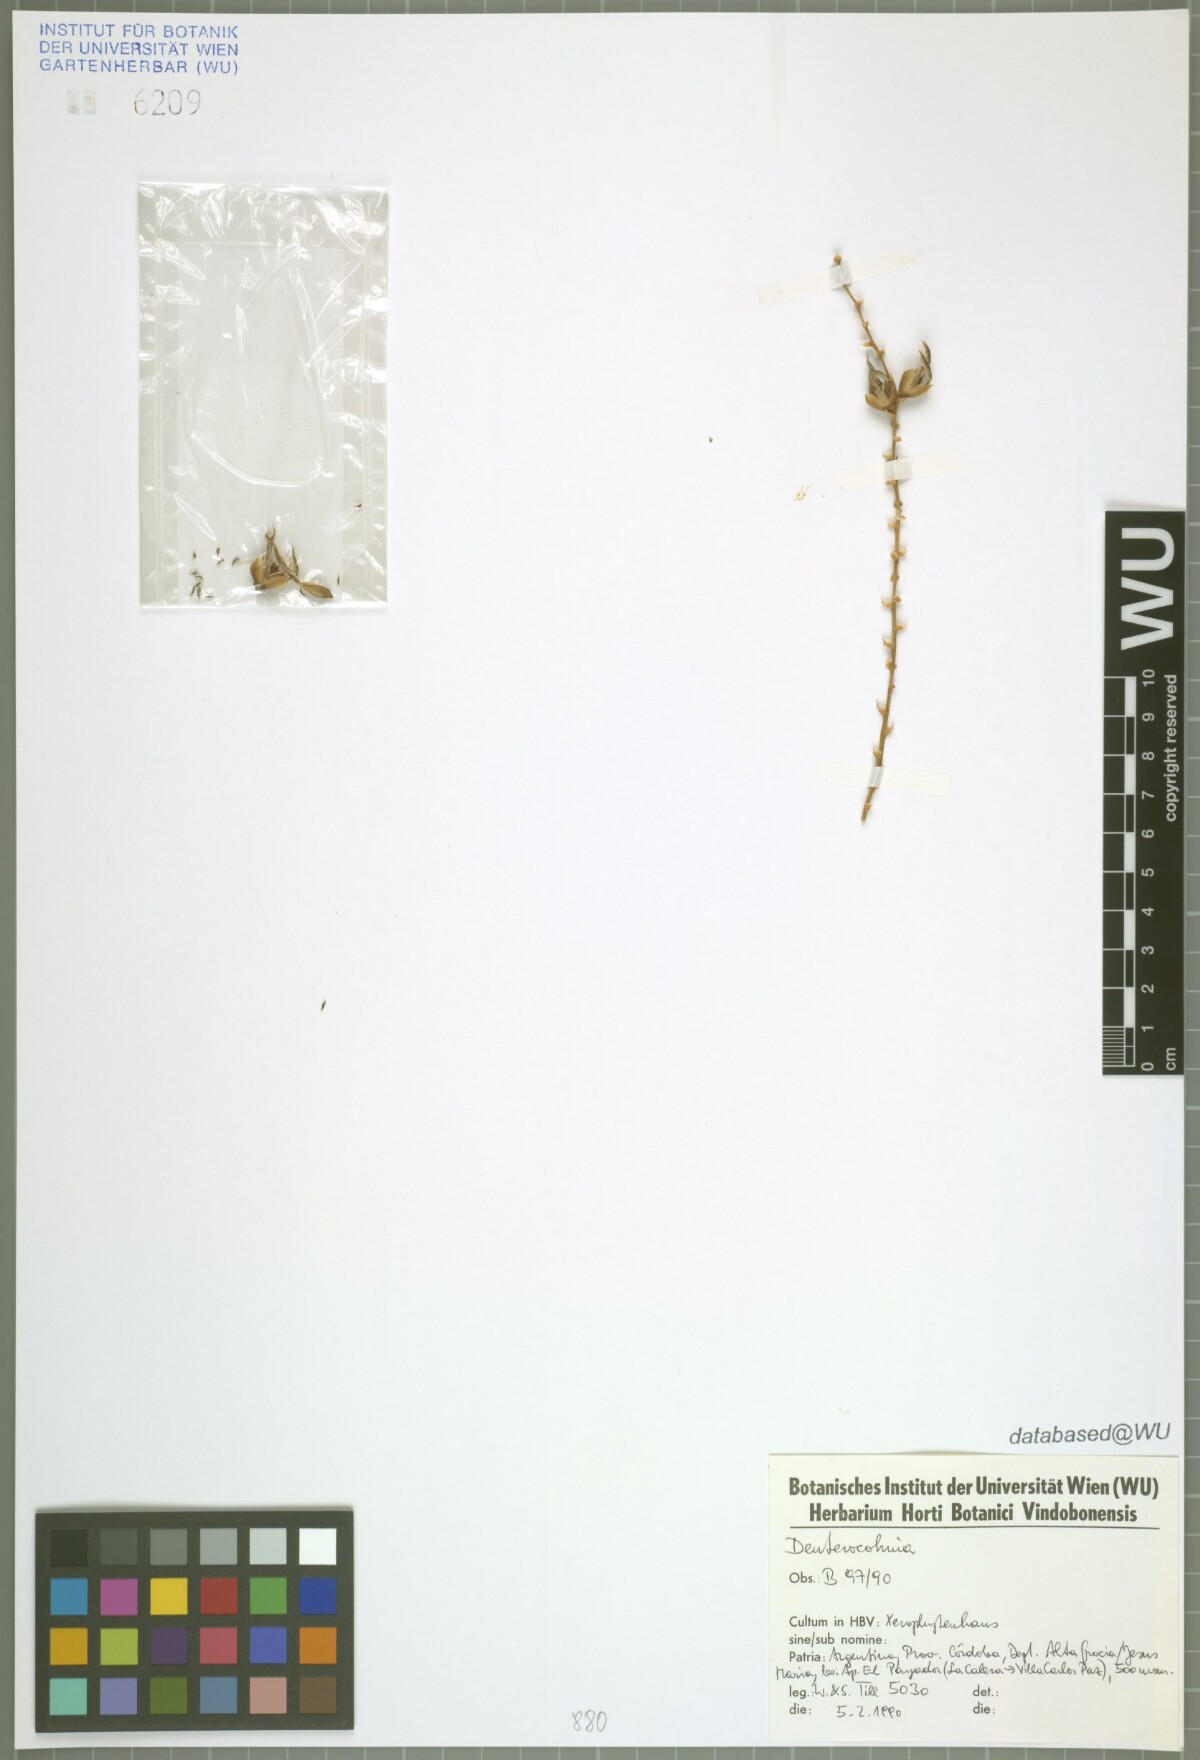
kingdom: Plantae
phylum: Tracheophyta
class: Liliopsida
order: Poales
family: Bromeliaceae
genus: Deuterocohnia
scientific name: Deuterocohnia
